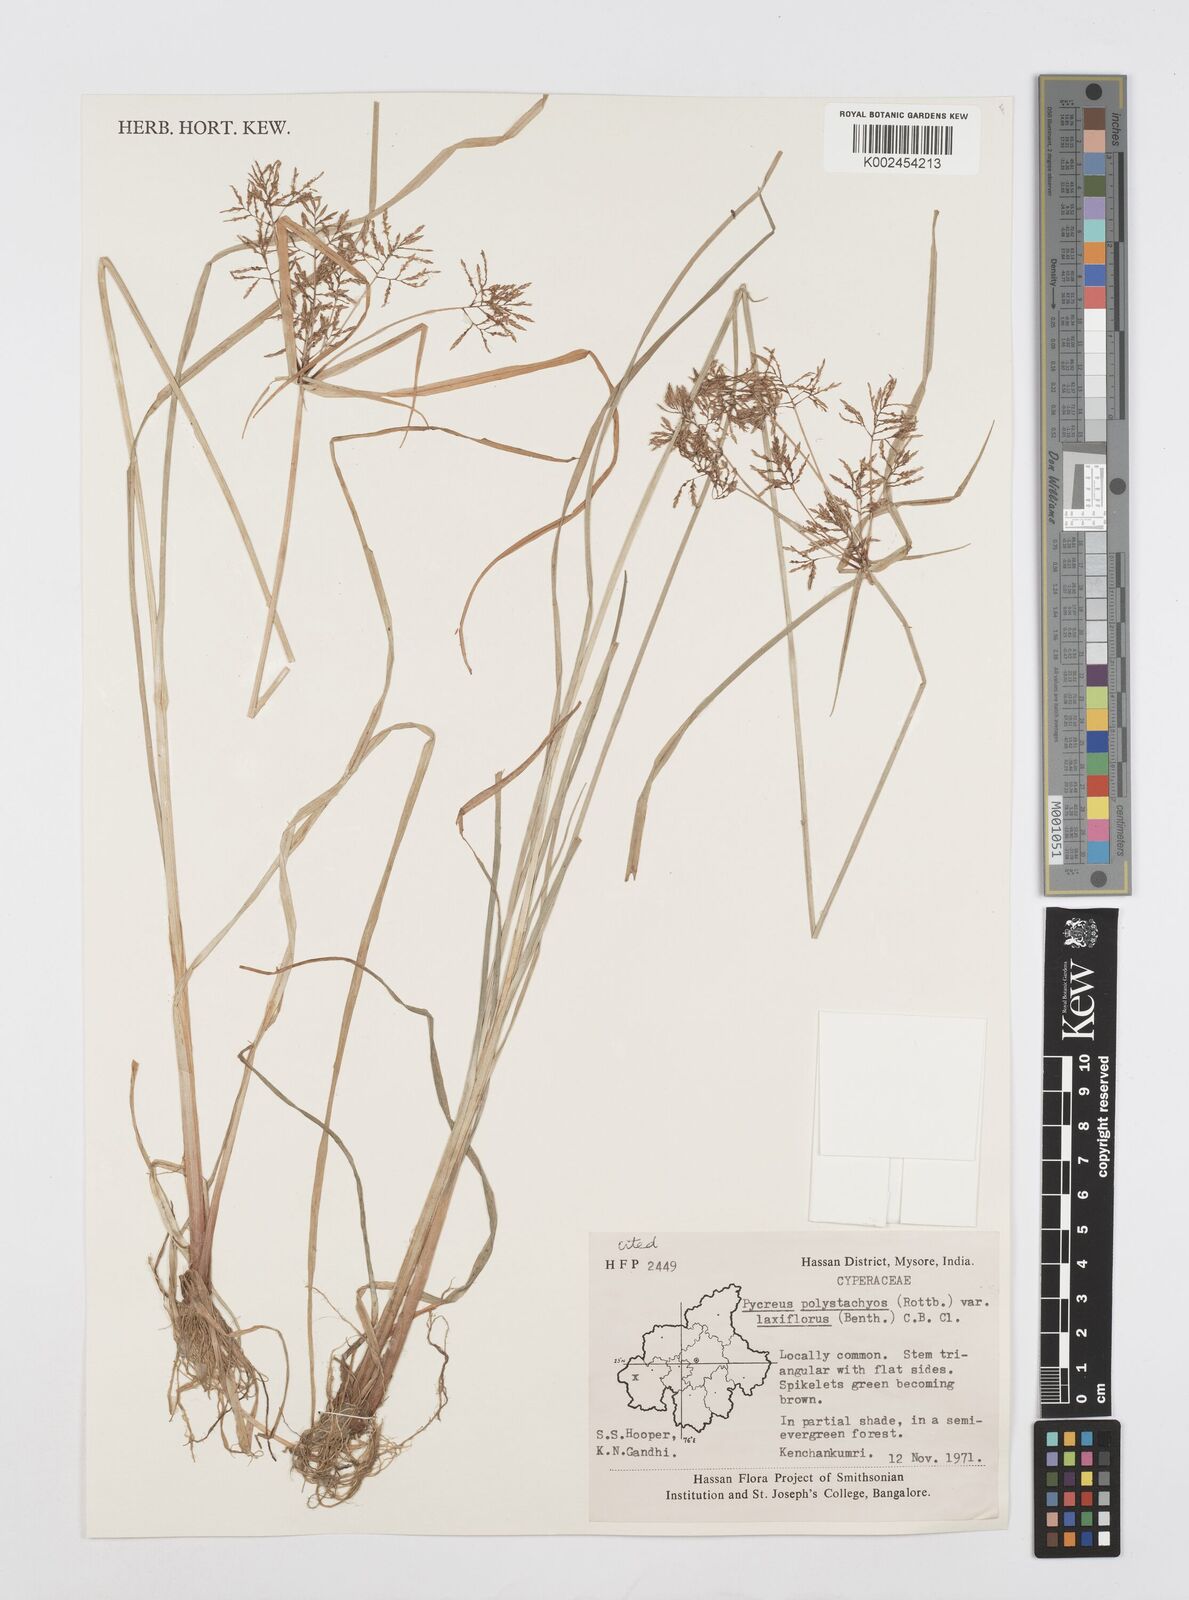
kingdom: Plantae
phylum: Tracheophyta
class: Liliopsida
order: Poales
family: Cyperaceae
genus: Cyperus
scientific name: Cyperus polystachyos
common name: Bunchy flat sedge
